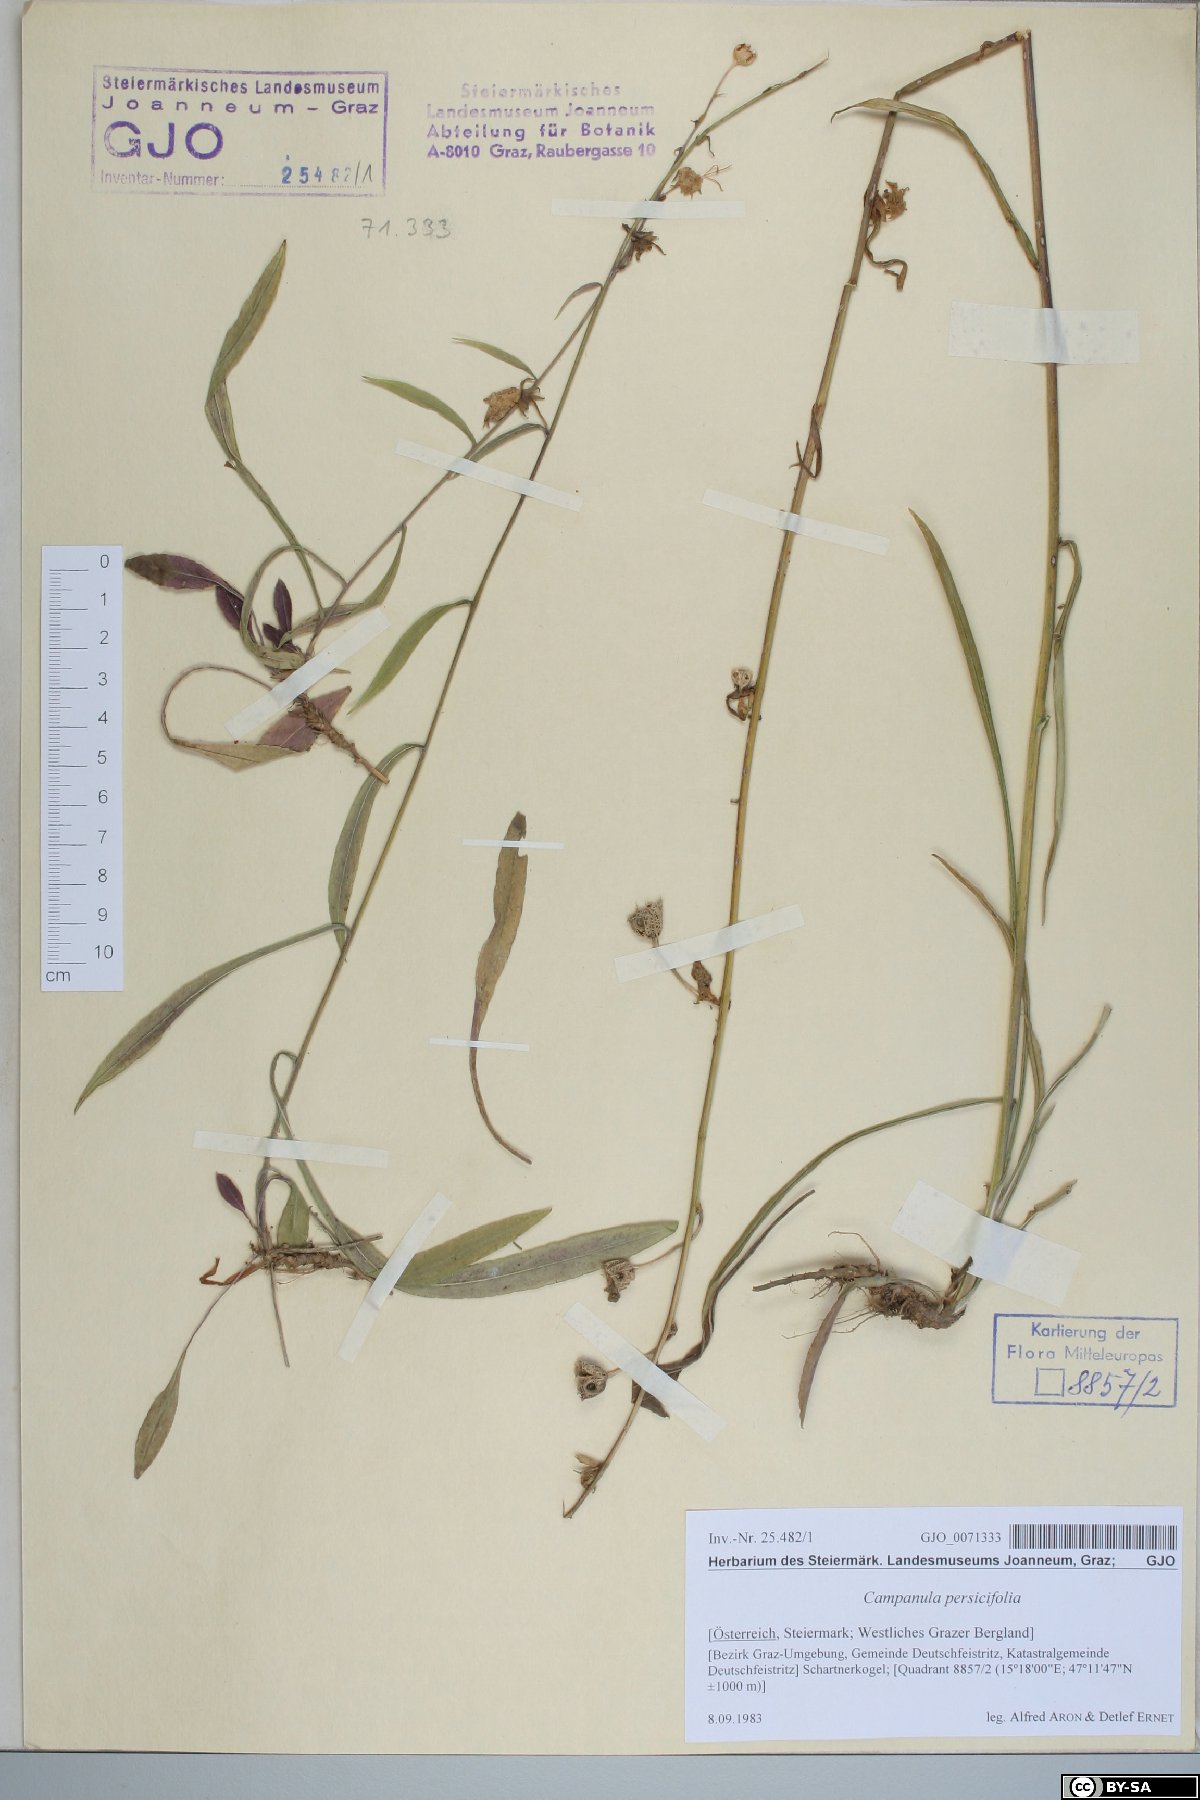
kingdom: Plantae
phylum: Tracheophyta
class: Magnoliopsida
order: Asterales
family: Campanulaceae
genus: Campanula
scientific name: Campanula persicifolia
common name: Peach-leaved bellflower
